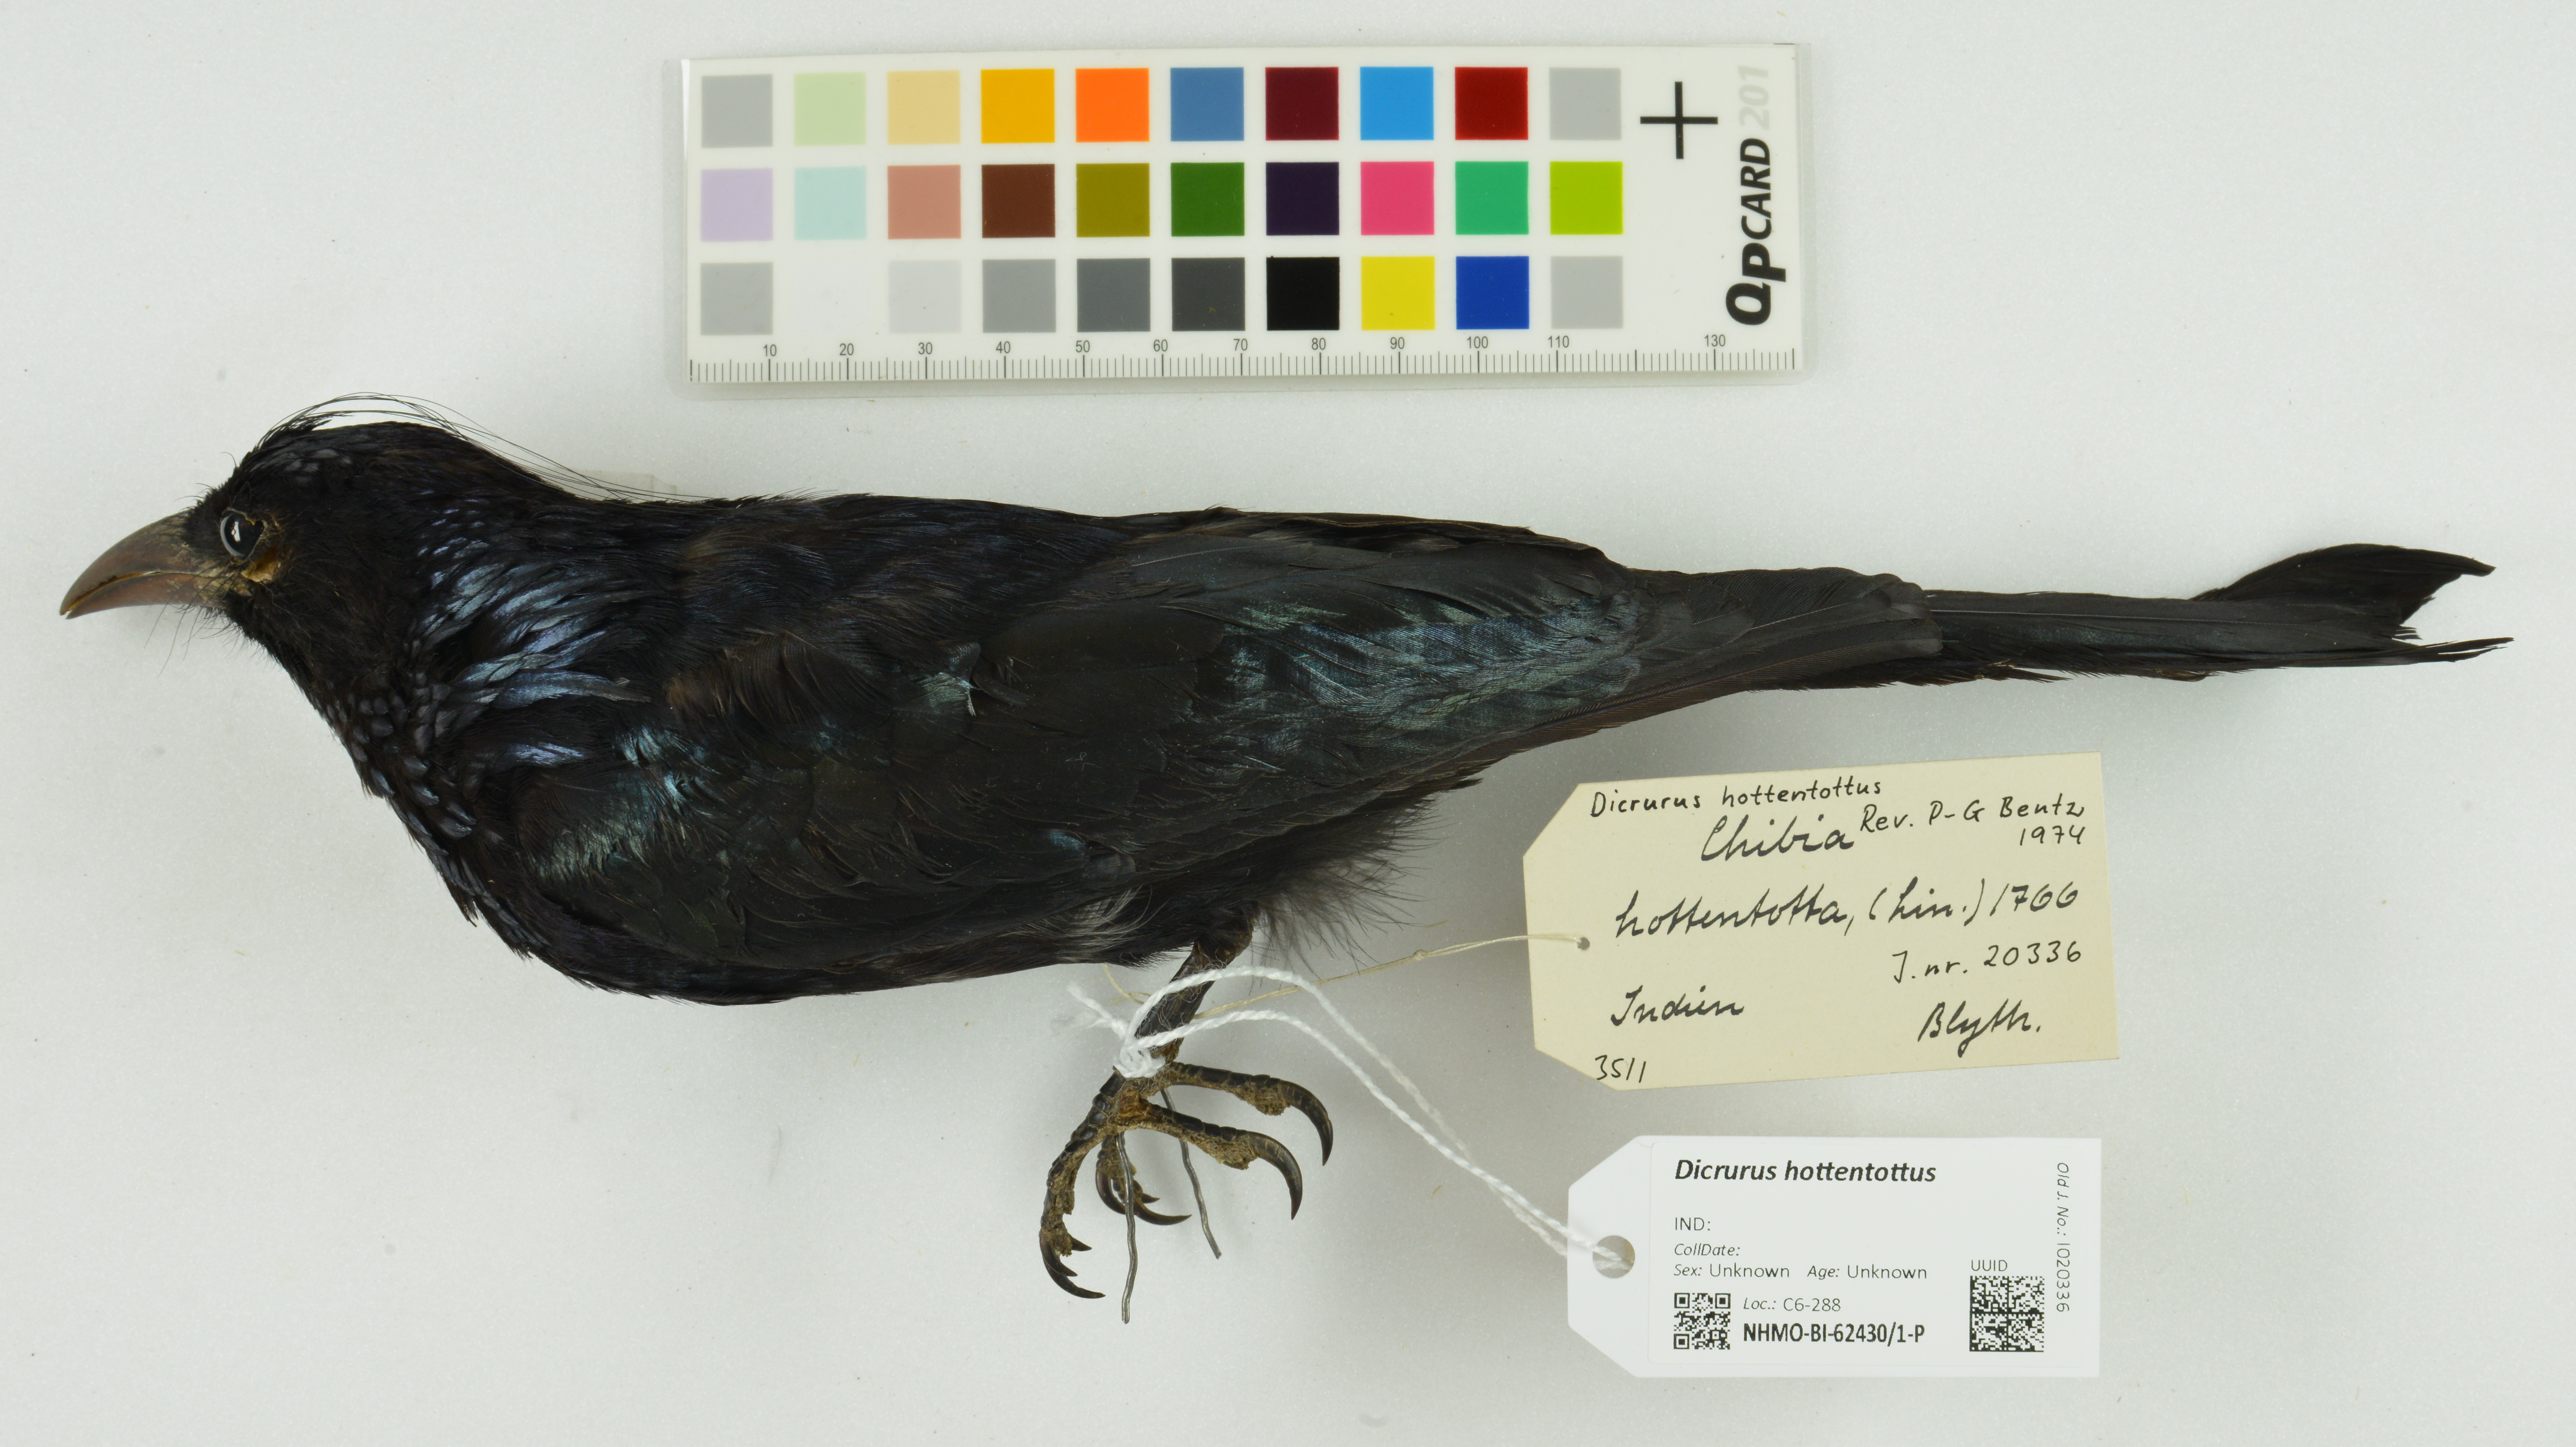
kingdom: Animalia
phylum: Chordata
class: Aves
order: Passeriformes
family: Dicruridae
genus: Dicrurus
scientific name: Dicrurus hottentottus
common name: Hair-crested drongo
